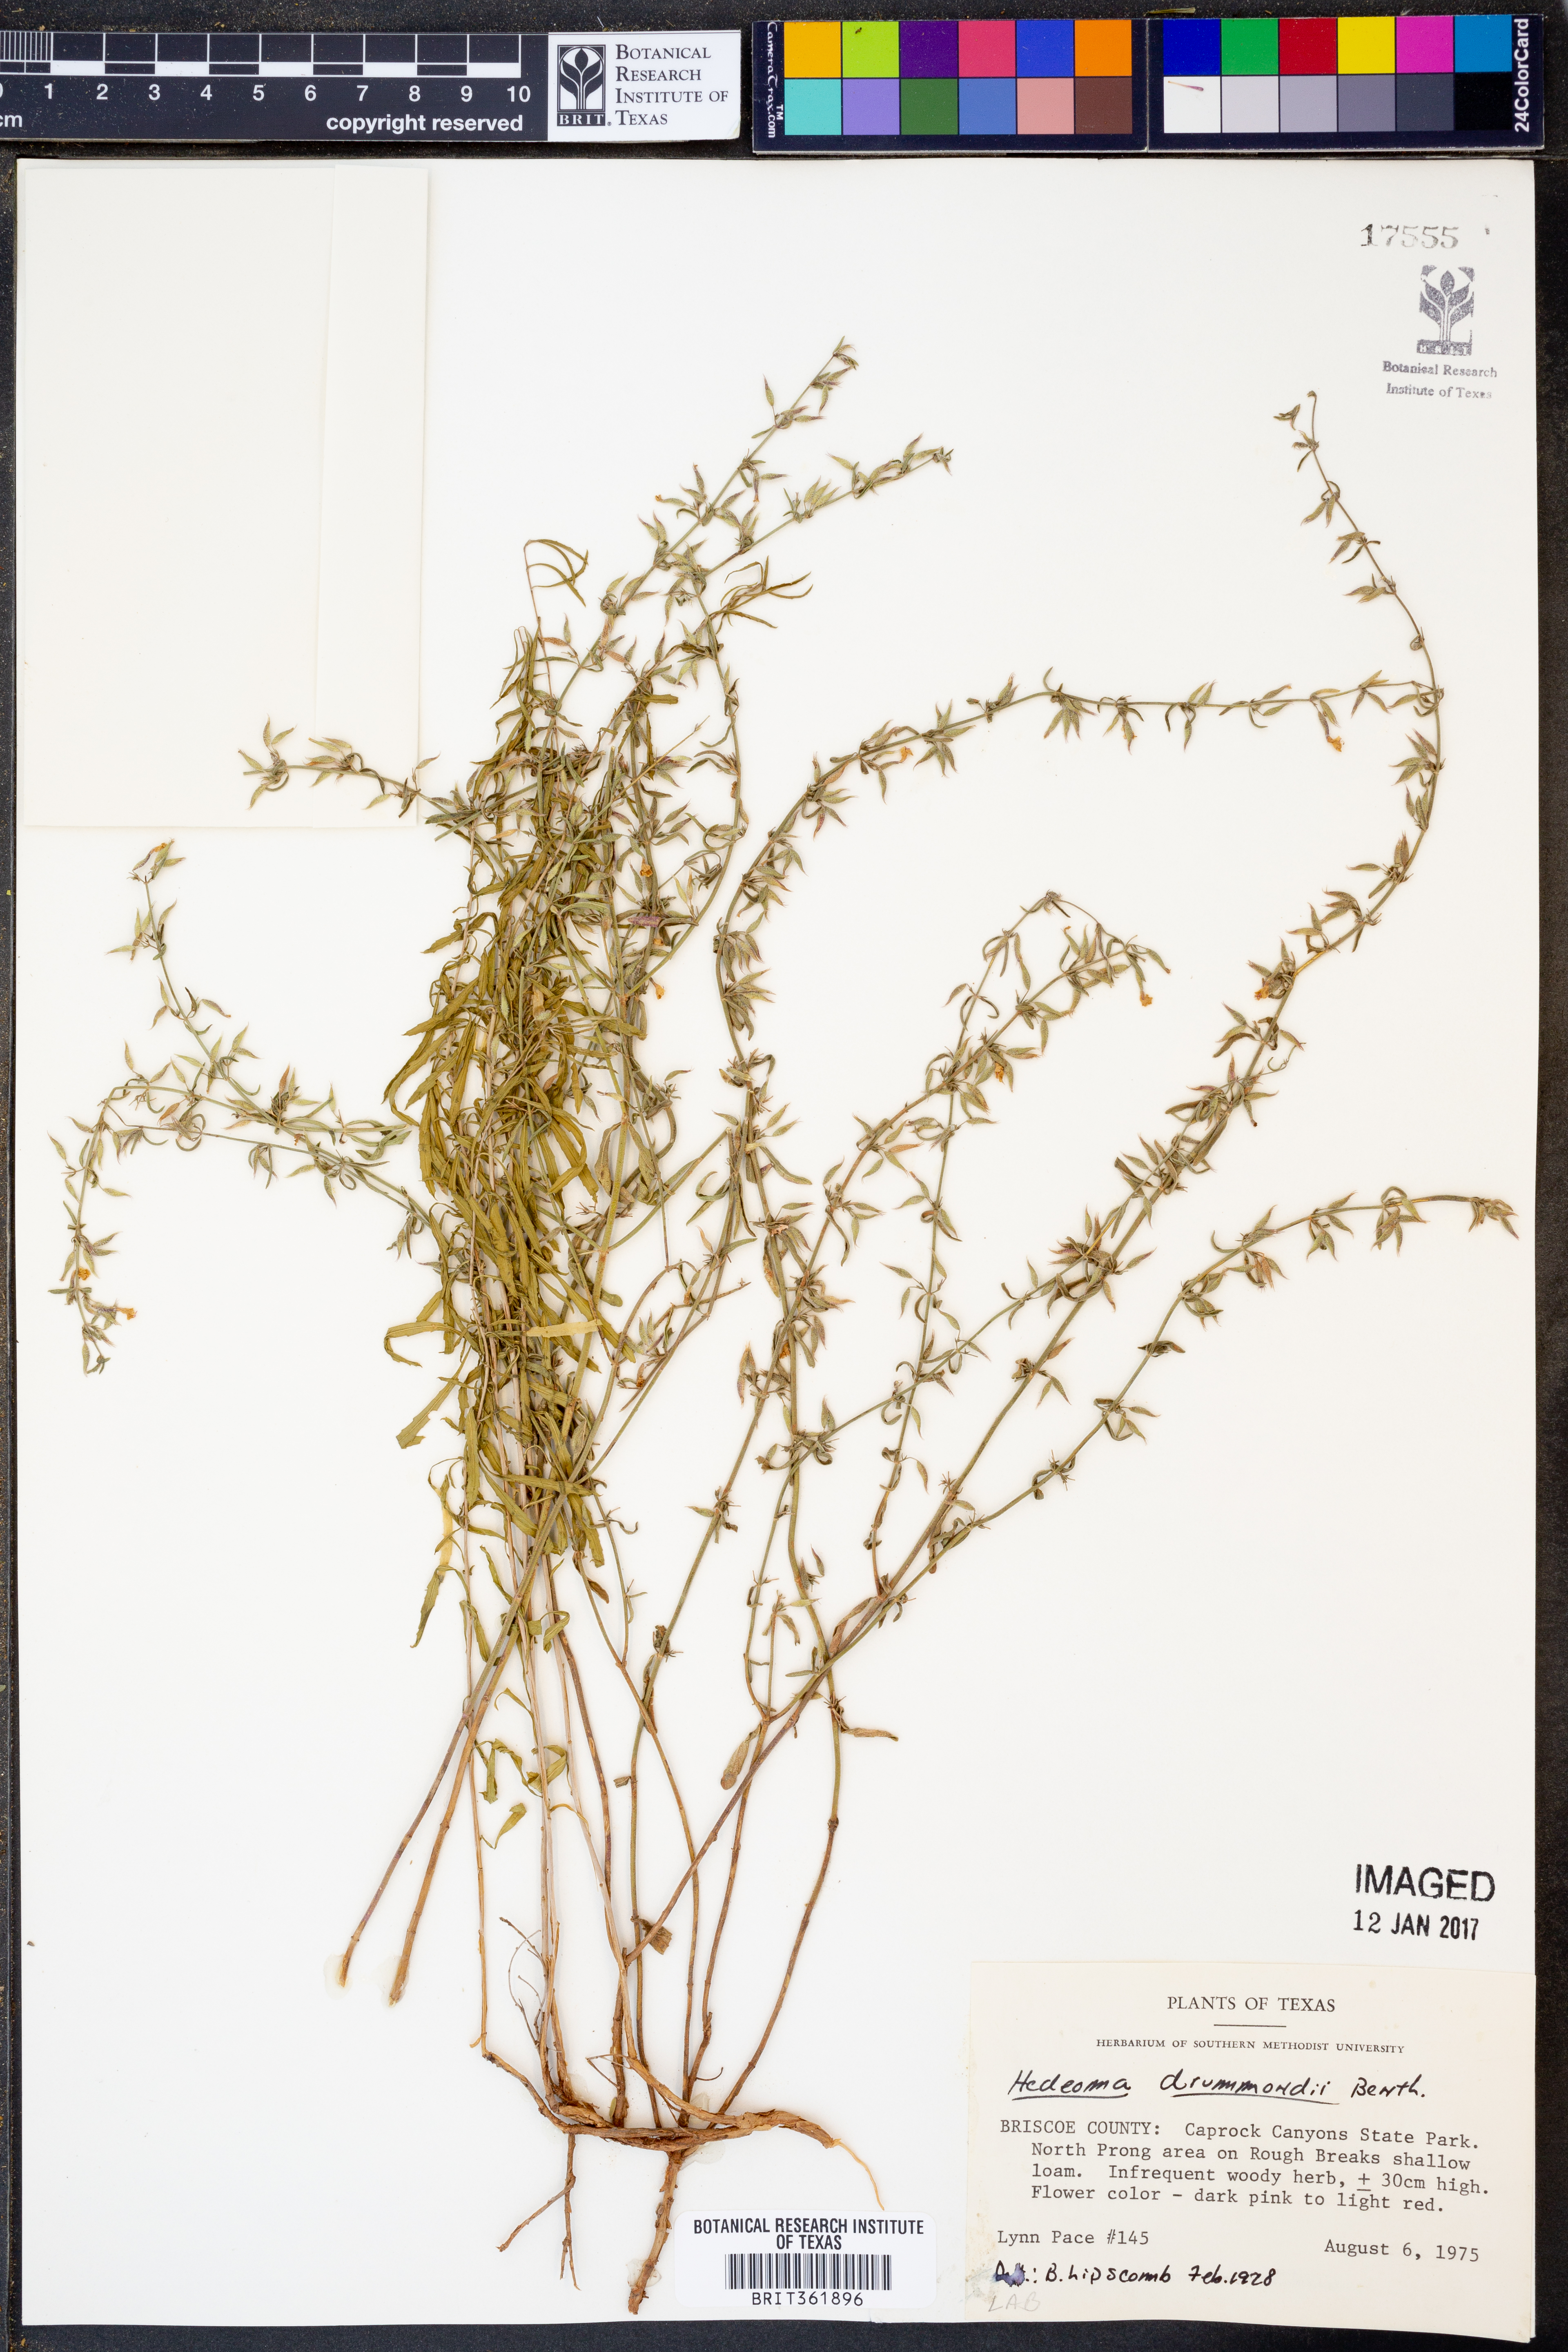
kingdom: Plantae
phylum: Tracheophyta
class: Magnoliopsida
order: Lamiales
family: Lamiaceae
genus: Hedeoma
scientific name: Hedeoma drummondii
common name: New mexico pennyroyal
